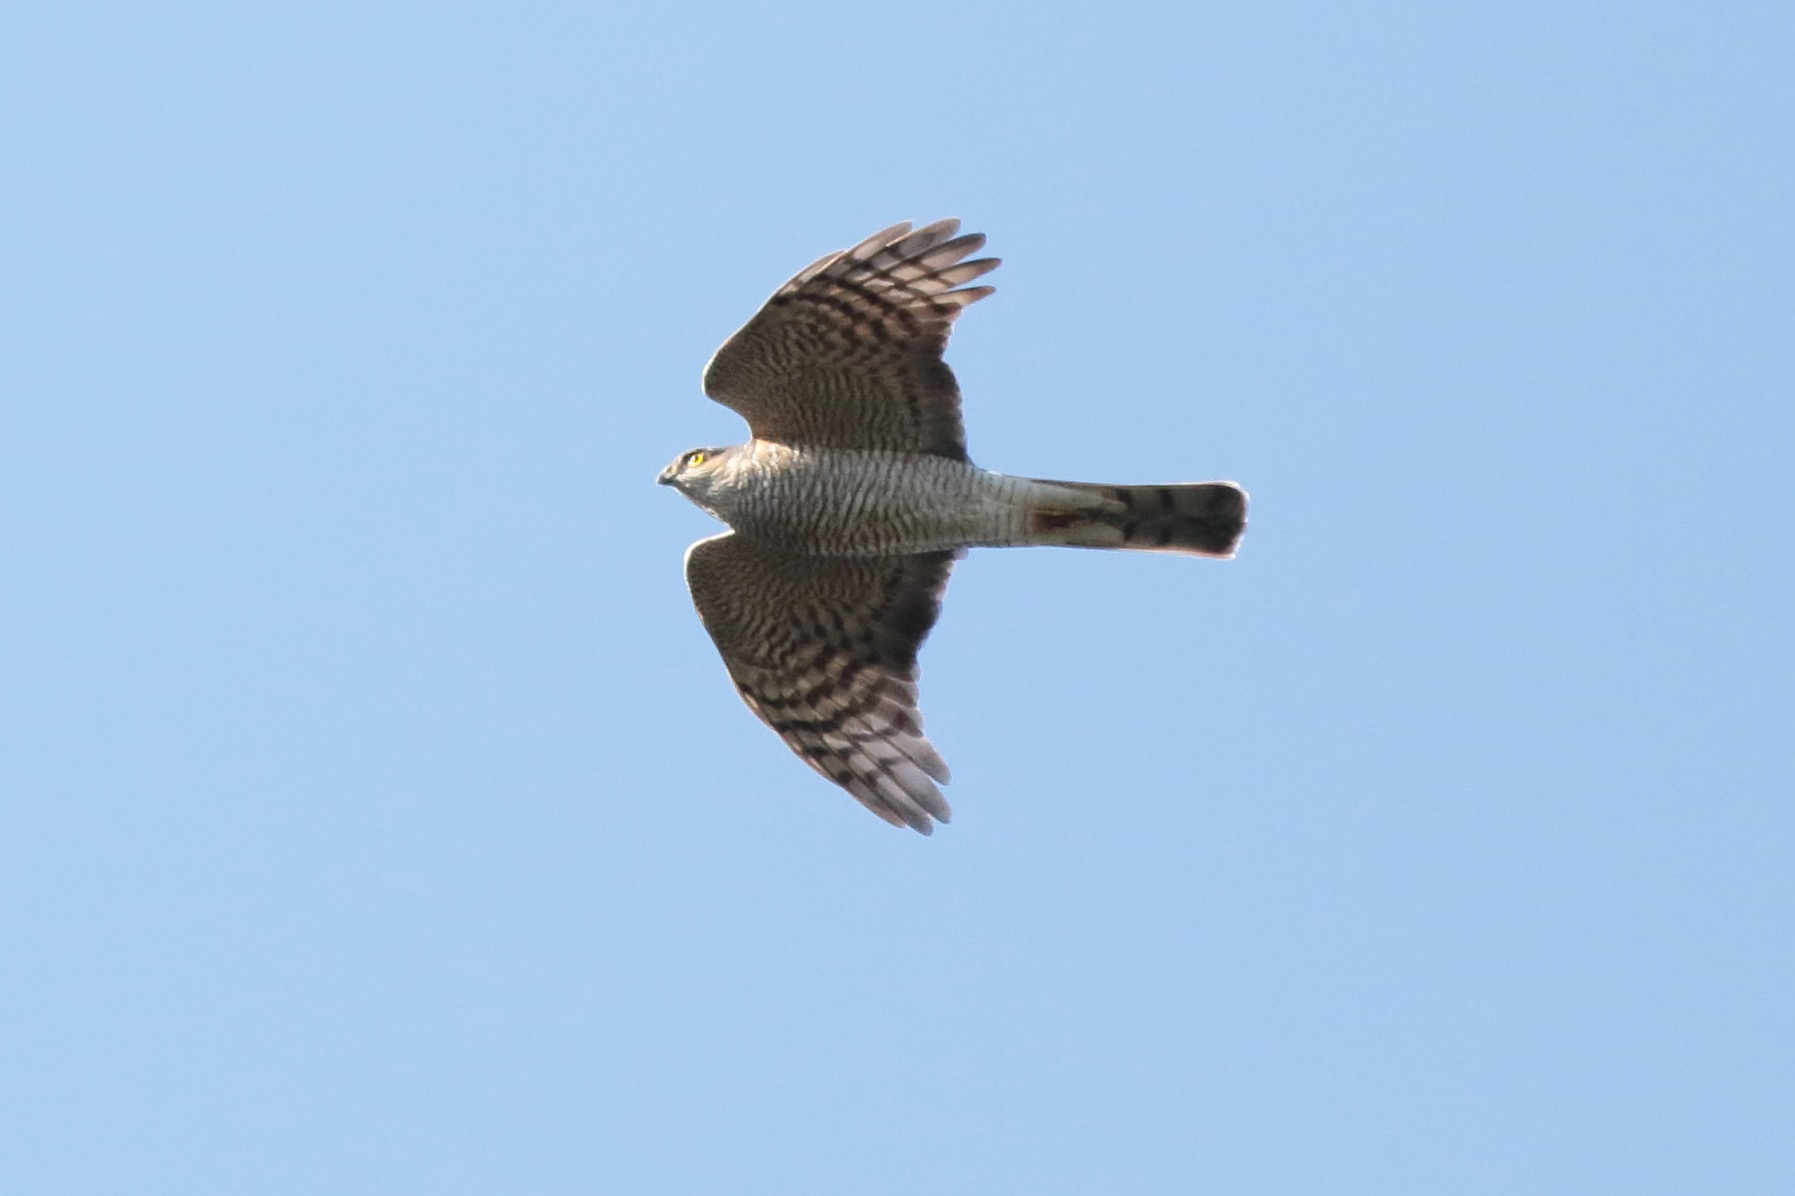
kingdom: Animalia
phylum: Chordata
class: Aves
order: Accipitriformes
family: Accipitridae
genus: Accipiter
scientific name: Accipiter nisus
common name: Spurvehøg
